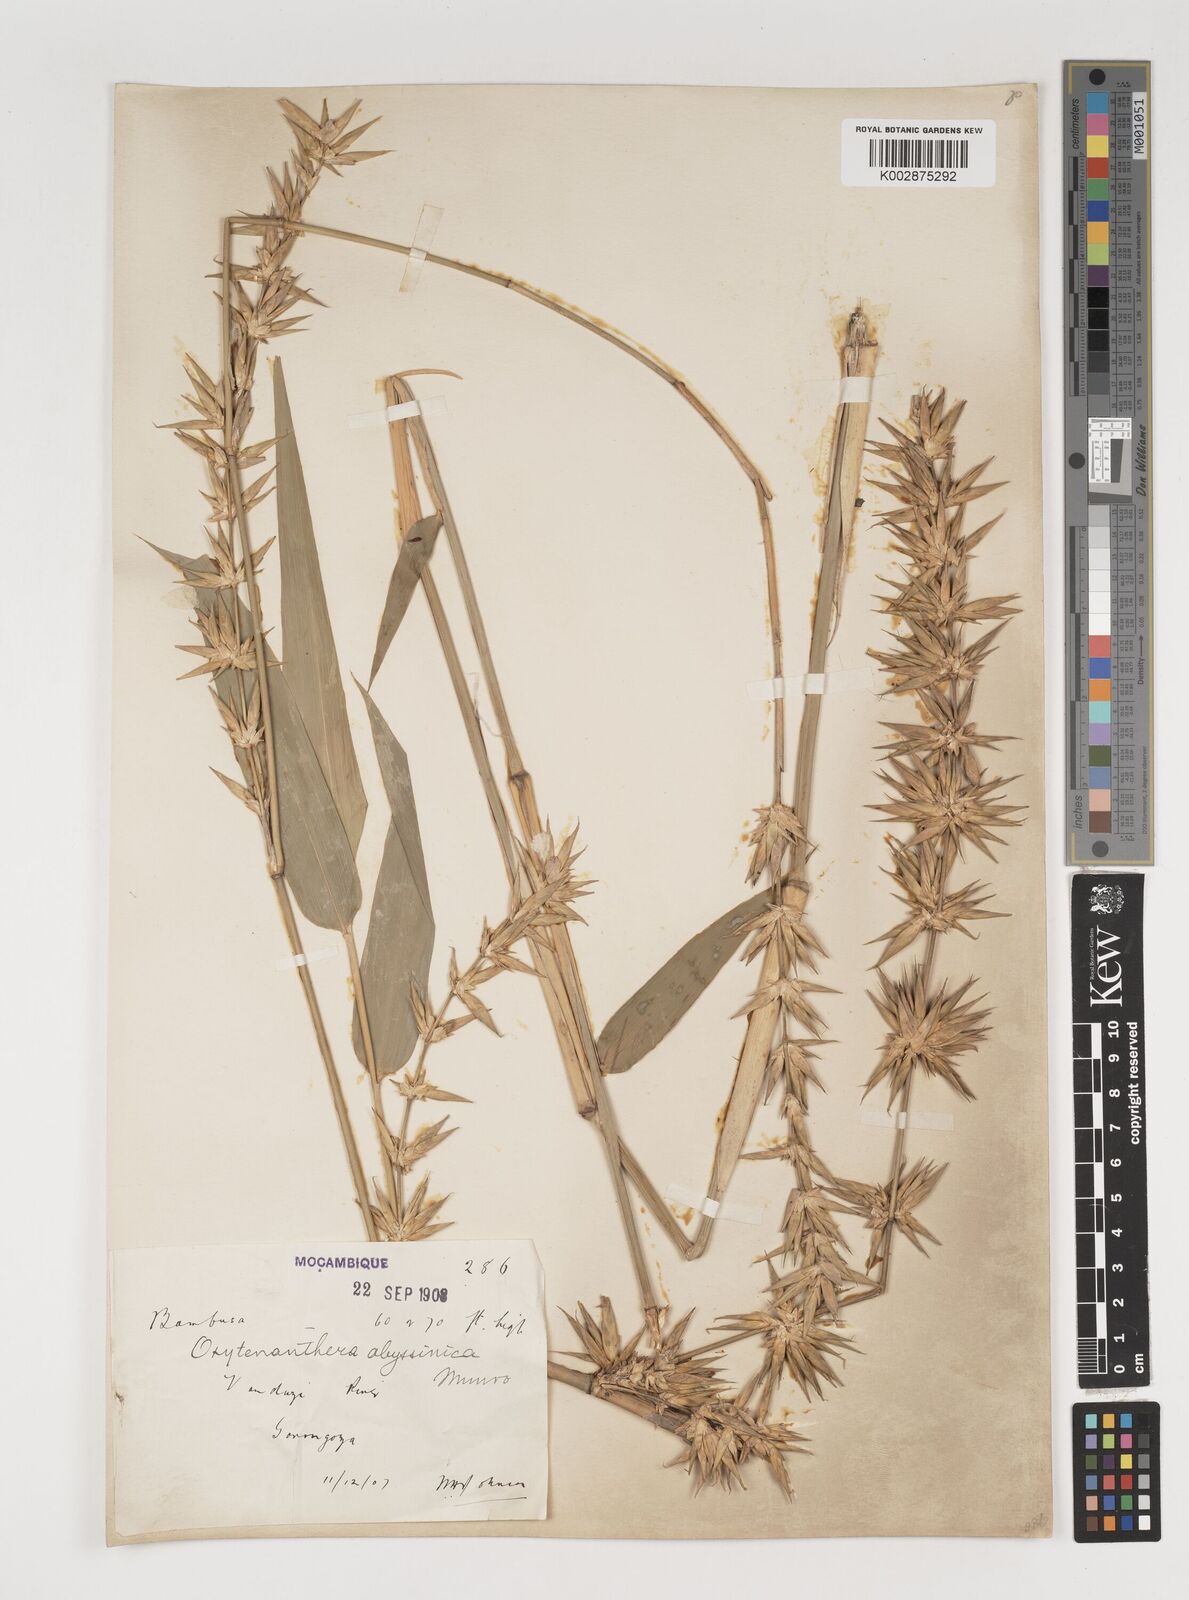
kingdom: Plantae
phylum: Tracheophyta
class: Liliopsida
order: Poales
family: Poaceae
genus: Oxytenanthera
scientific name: Oxytenanthera abyssinica
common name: Wine bamboo
